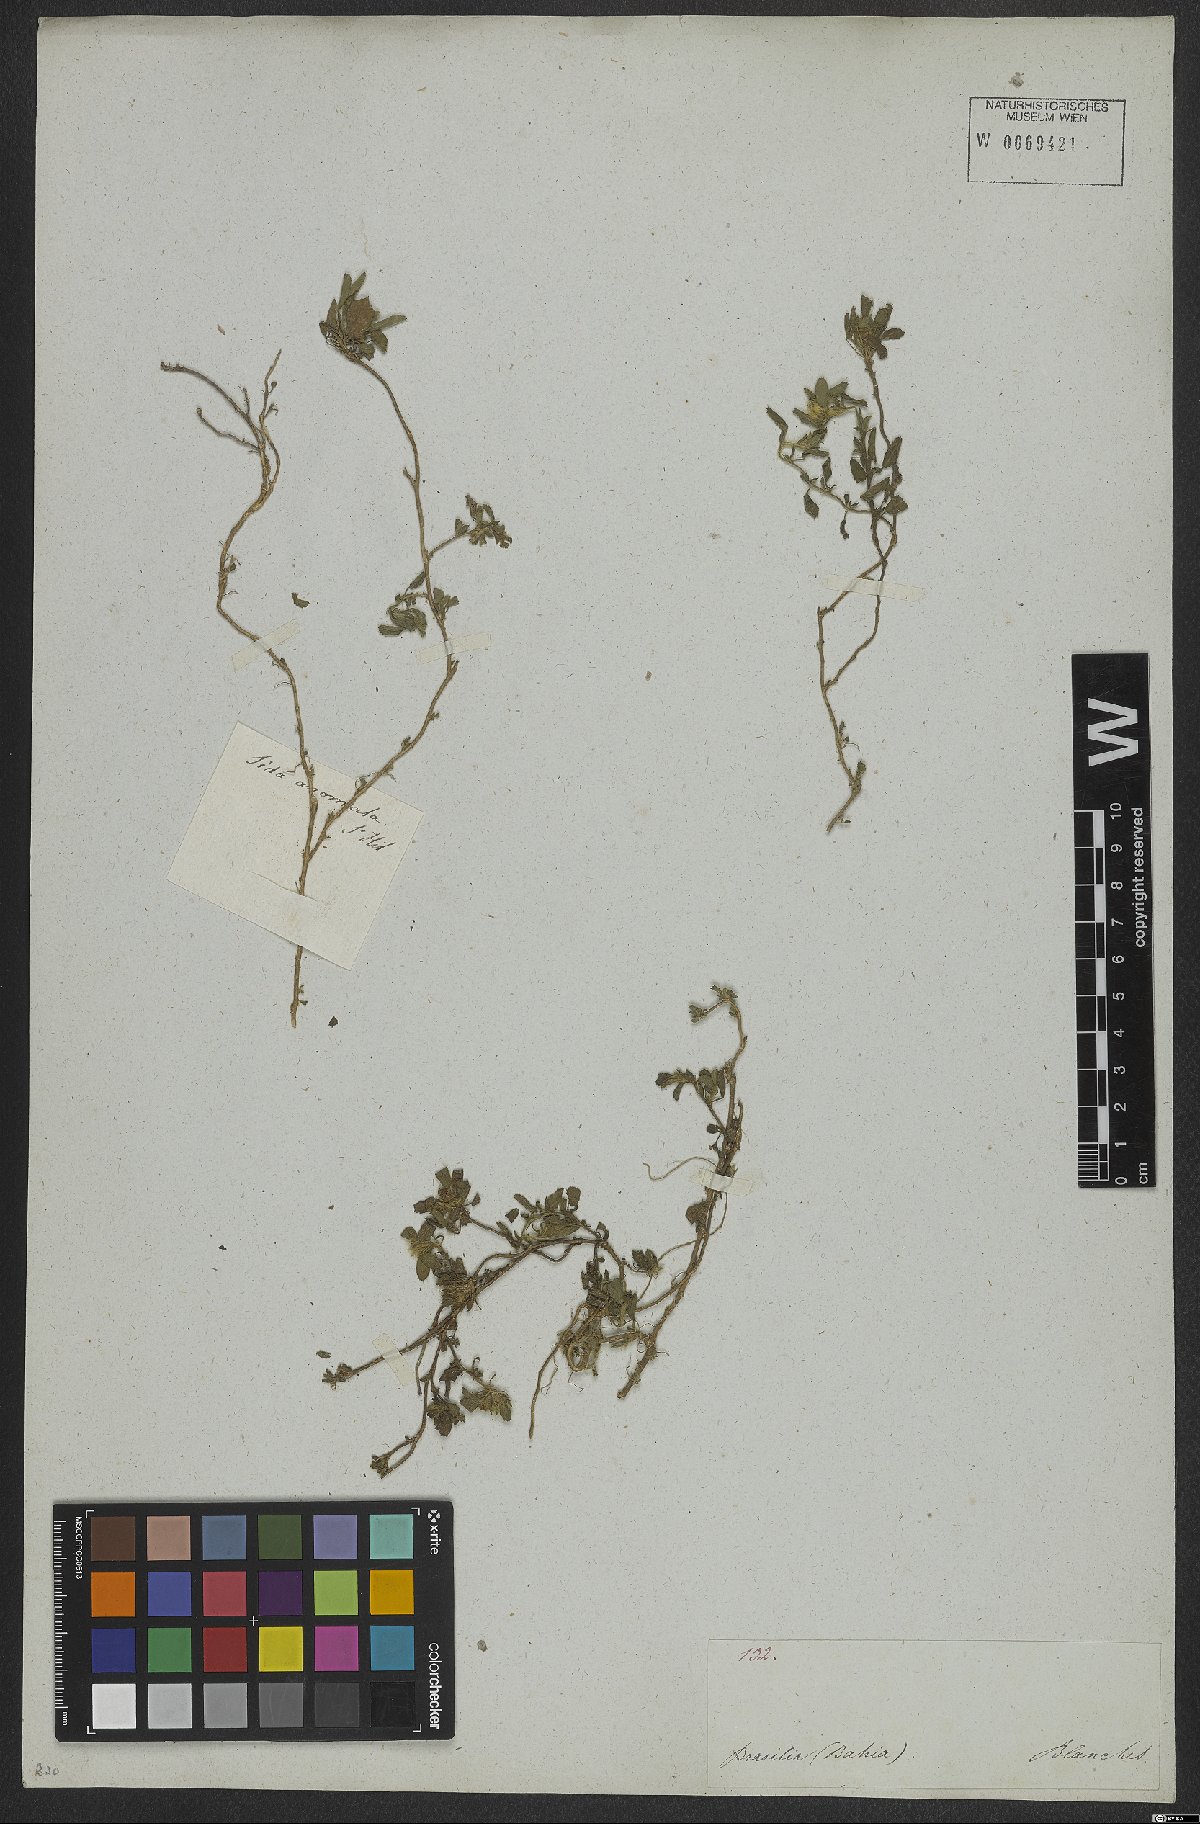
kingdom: Plantae
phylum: Tracheophyta
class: Magnoliopsida
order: Malvales
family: Malvaceae
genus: Sida
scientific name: Sida ciliaris
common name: Bracted fanpetals
